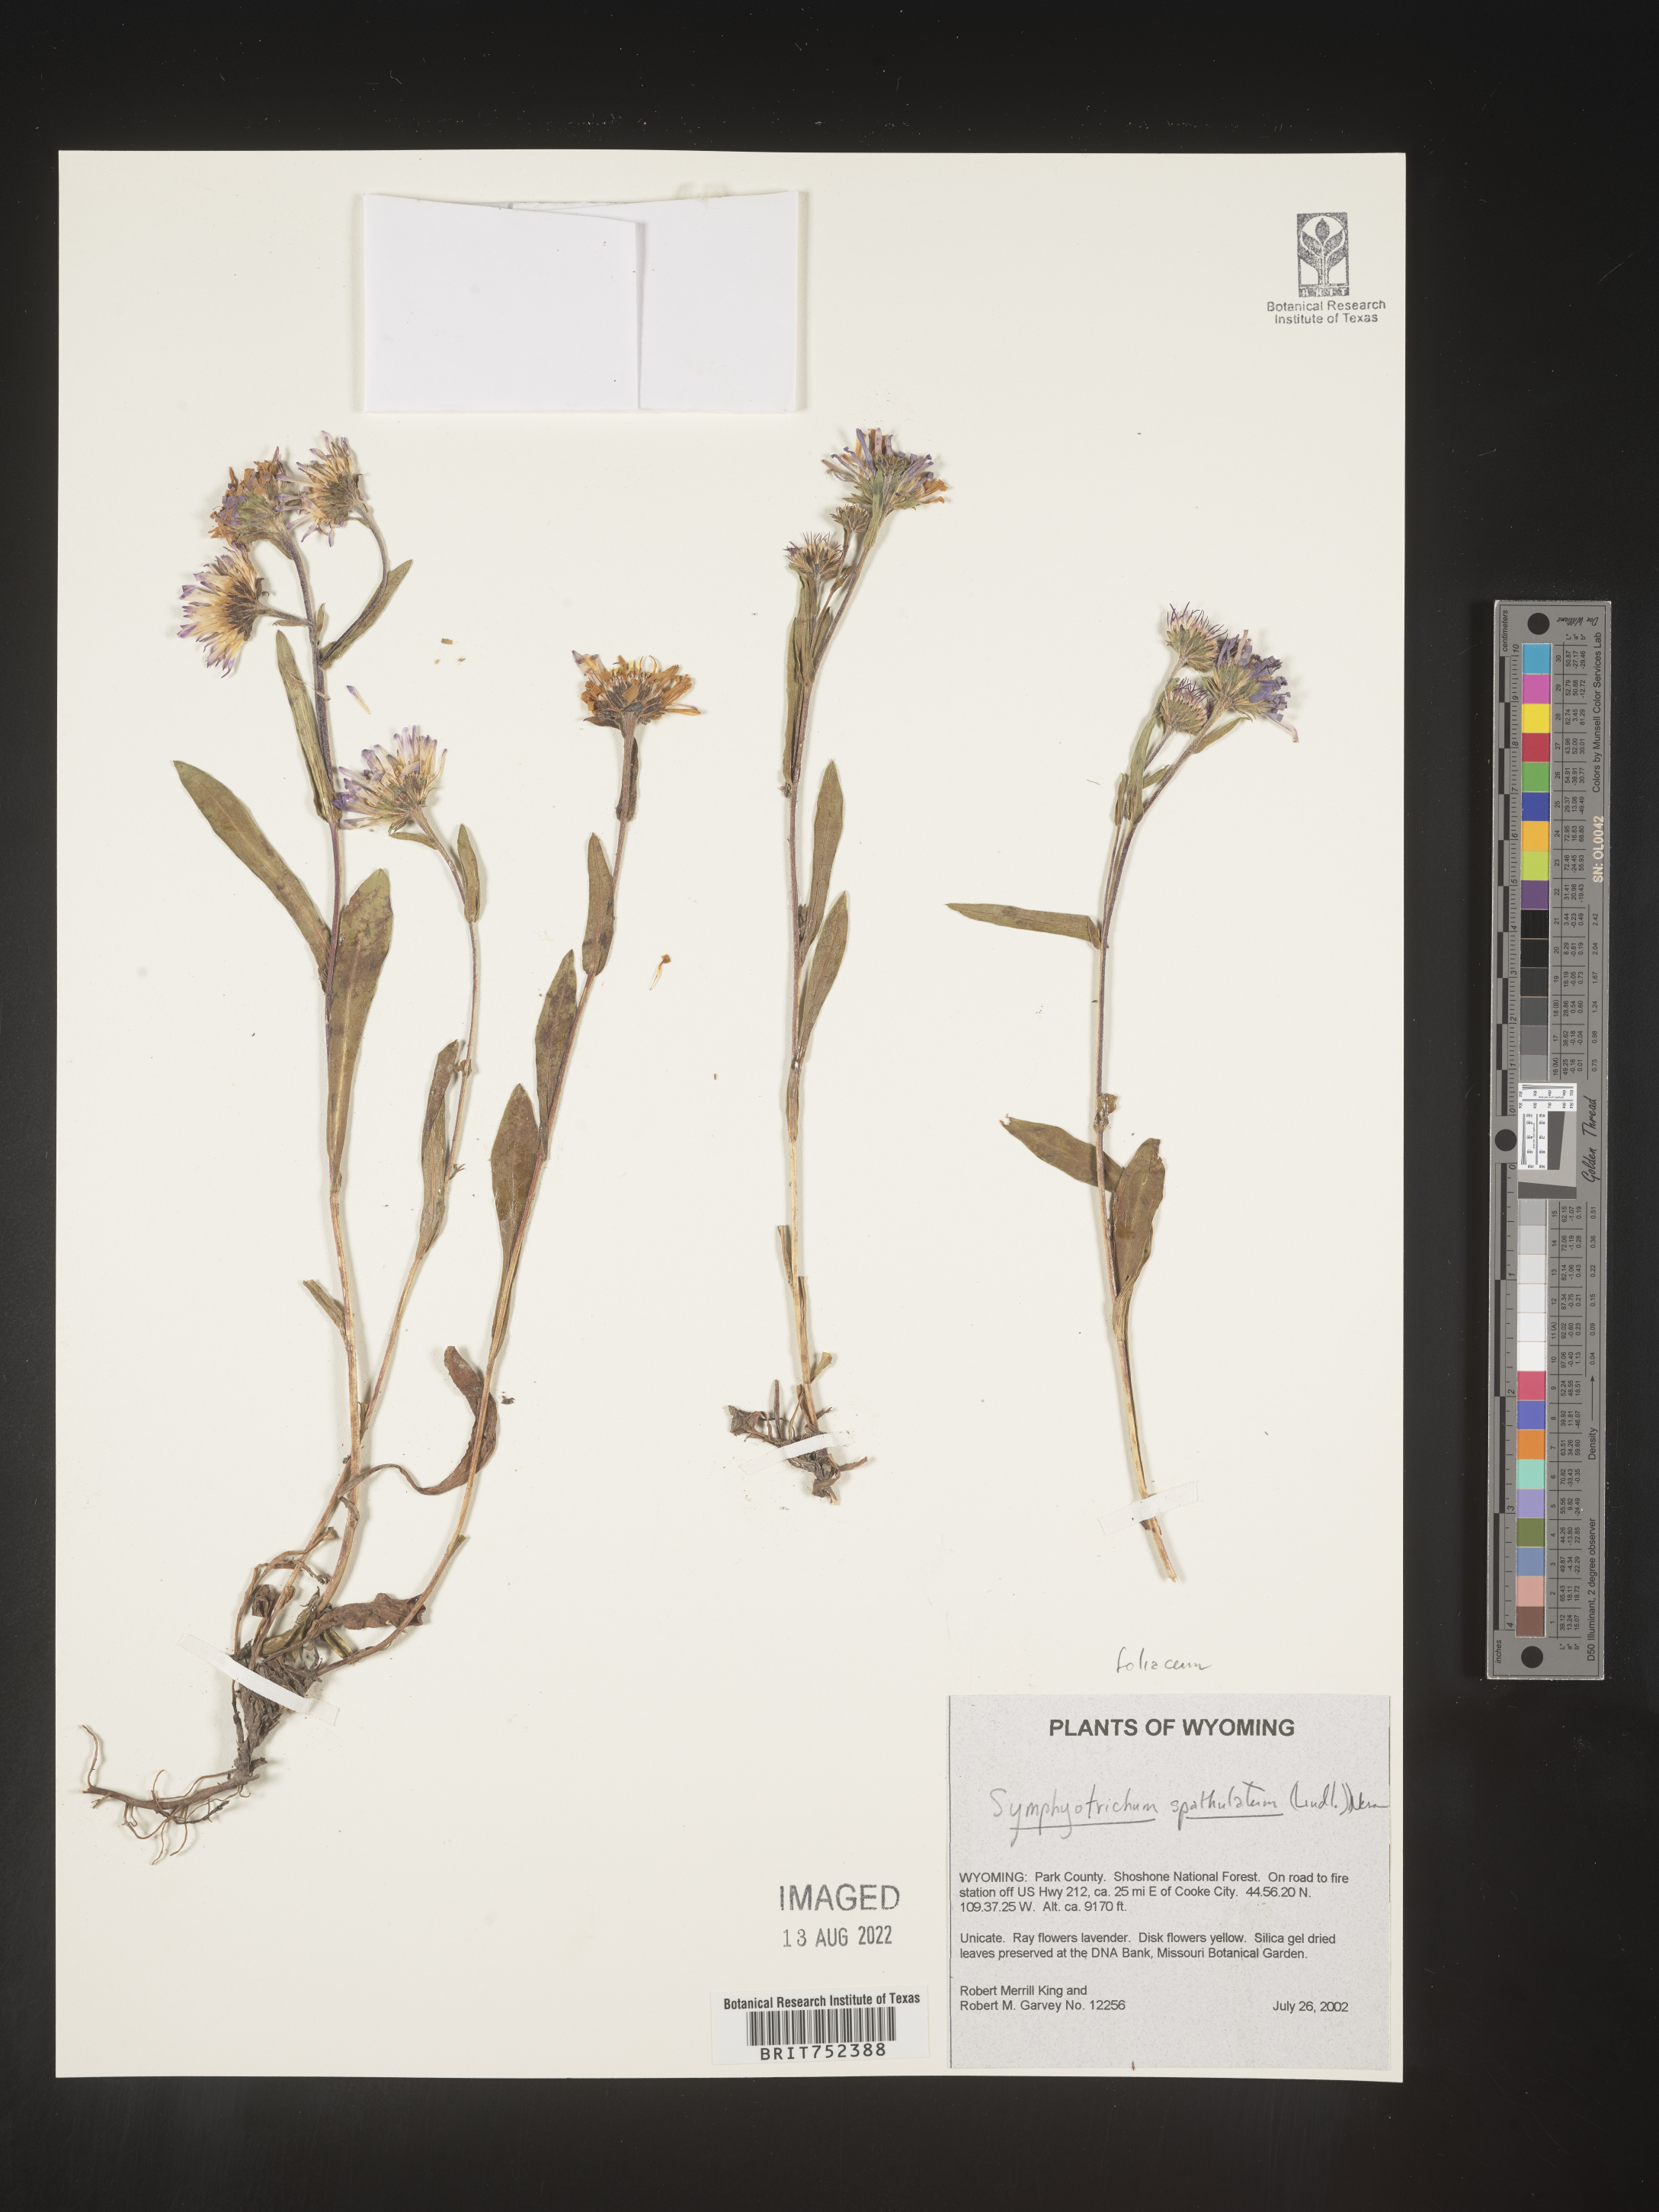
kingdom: Plantae
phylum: Tracheophyta
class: Magnoliopsida
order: Asterales
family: Asteraceae
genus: Symphyotrichum
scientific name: Symphyotrichum foliaceum
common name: Leafy aster
